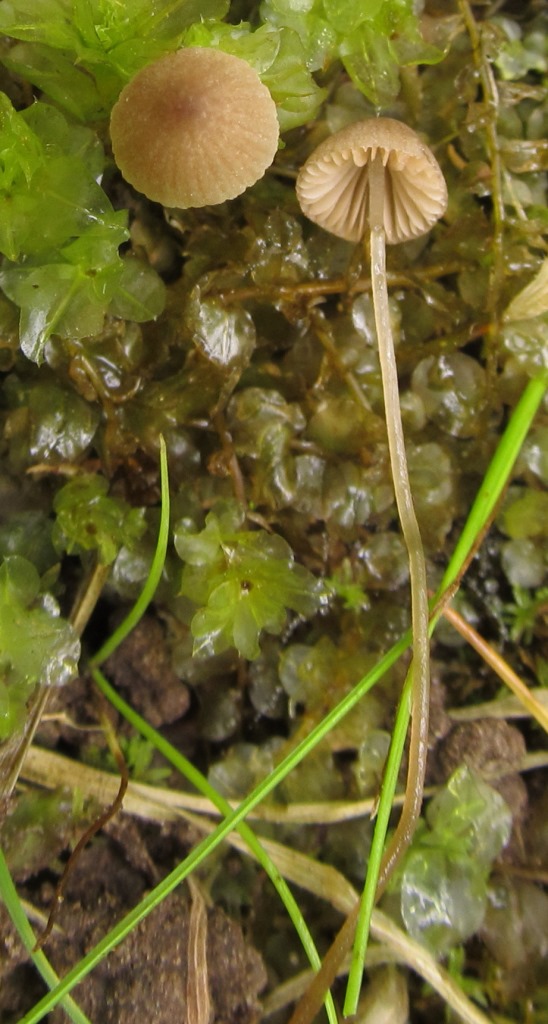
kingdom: Fungi
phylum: Basidiomycota
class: Agaricomycetes
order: Agaricales
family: Bolbitiaceae
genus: Conocybe
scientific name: Conocybe bisporigera
